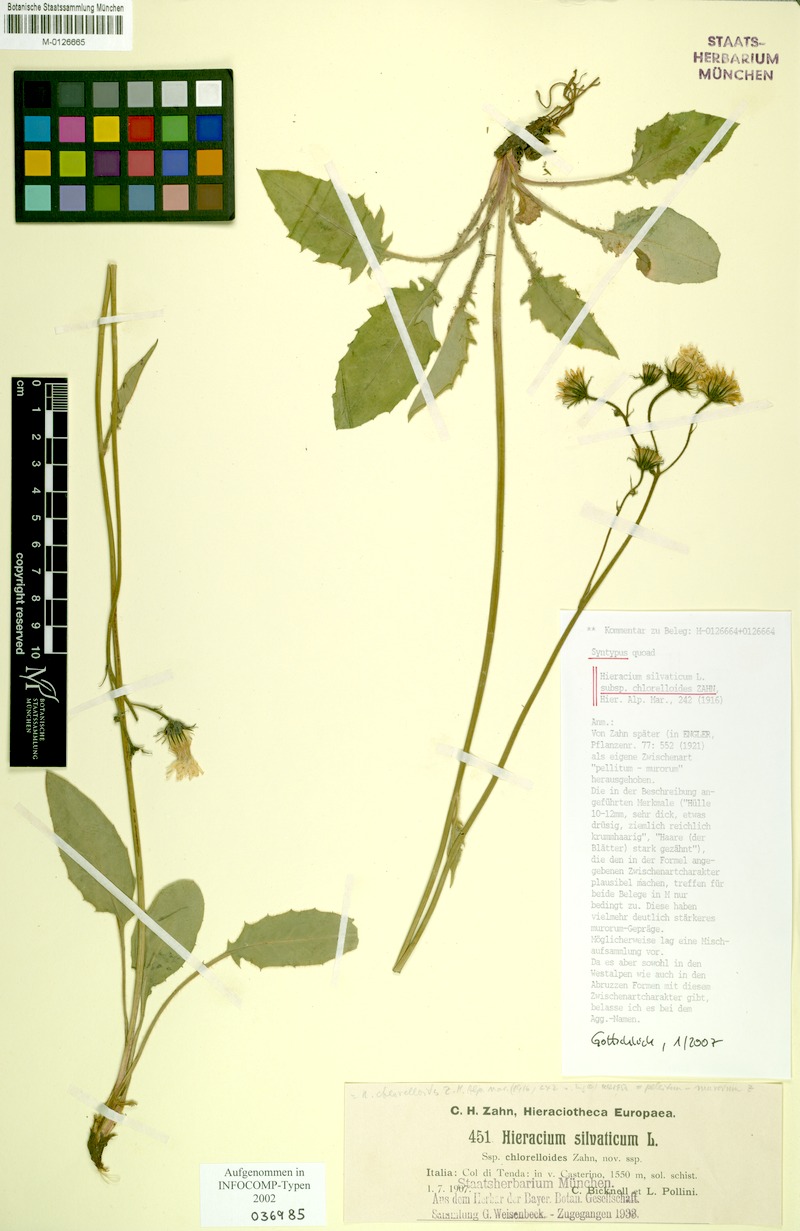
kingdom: Plantae
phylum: Tracheophyta
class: Magnoliopsida
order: Asterales
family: Asteraceae
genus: Hieracium
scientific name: Hieracium chlorelloides
